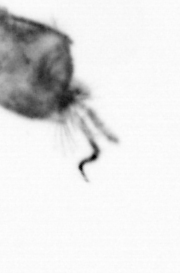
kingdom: Animalia
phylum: Arthropoda
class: Copepoda
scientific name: Copepoda
